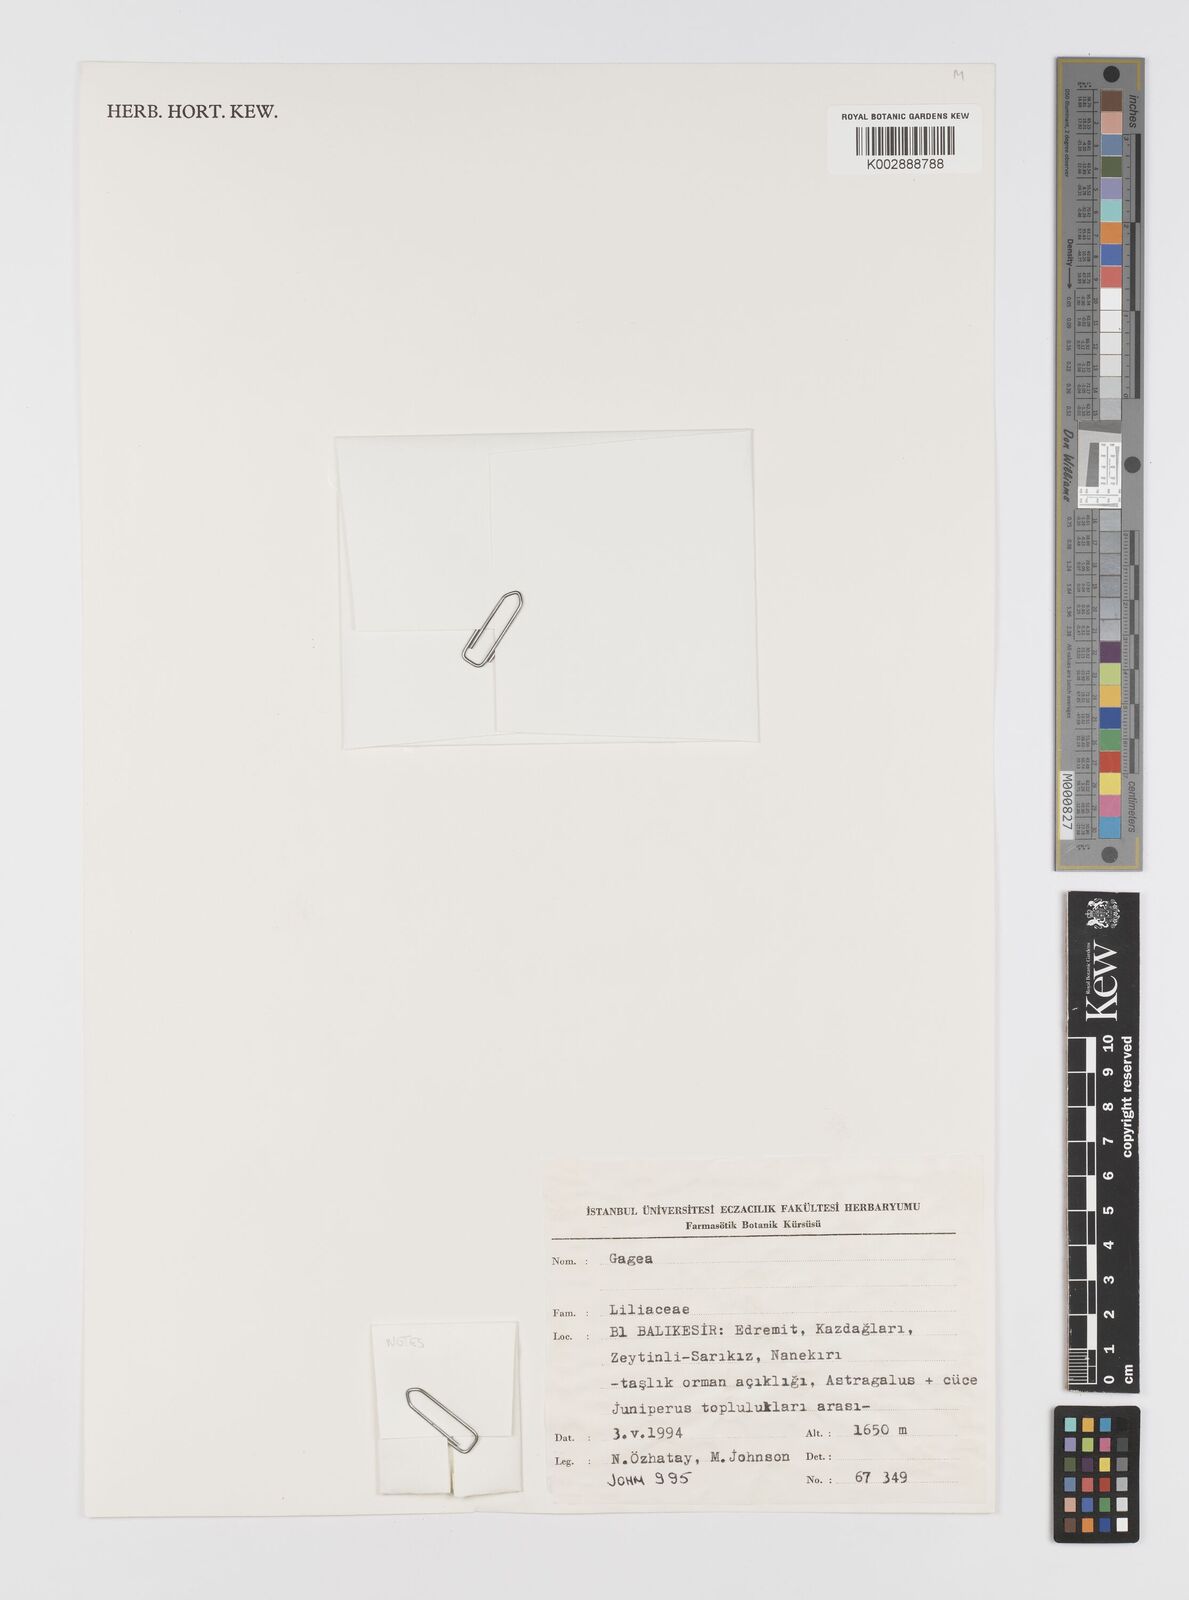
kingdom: Plantae
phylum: Tracheophyta
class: Liliopsida
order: Liliales
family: Liliaceae
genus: Gagea
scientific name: Gagea
